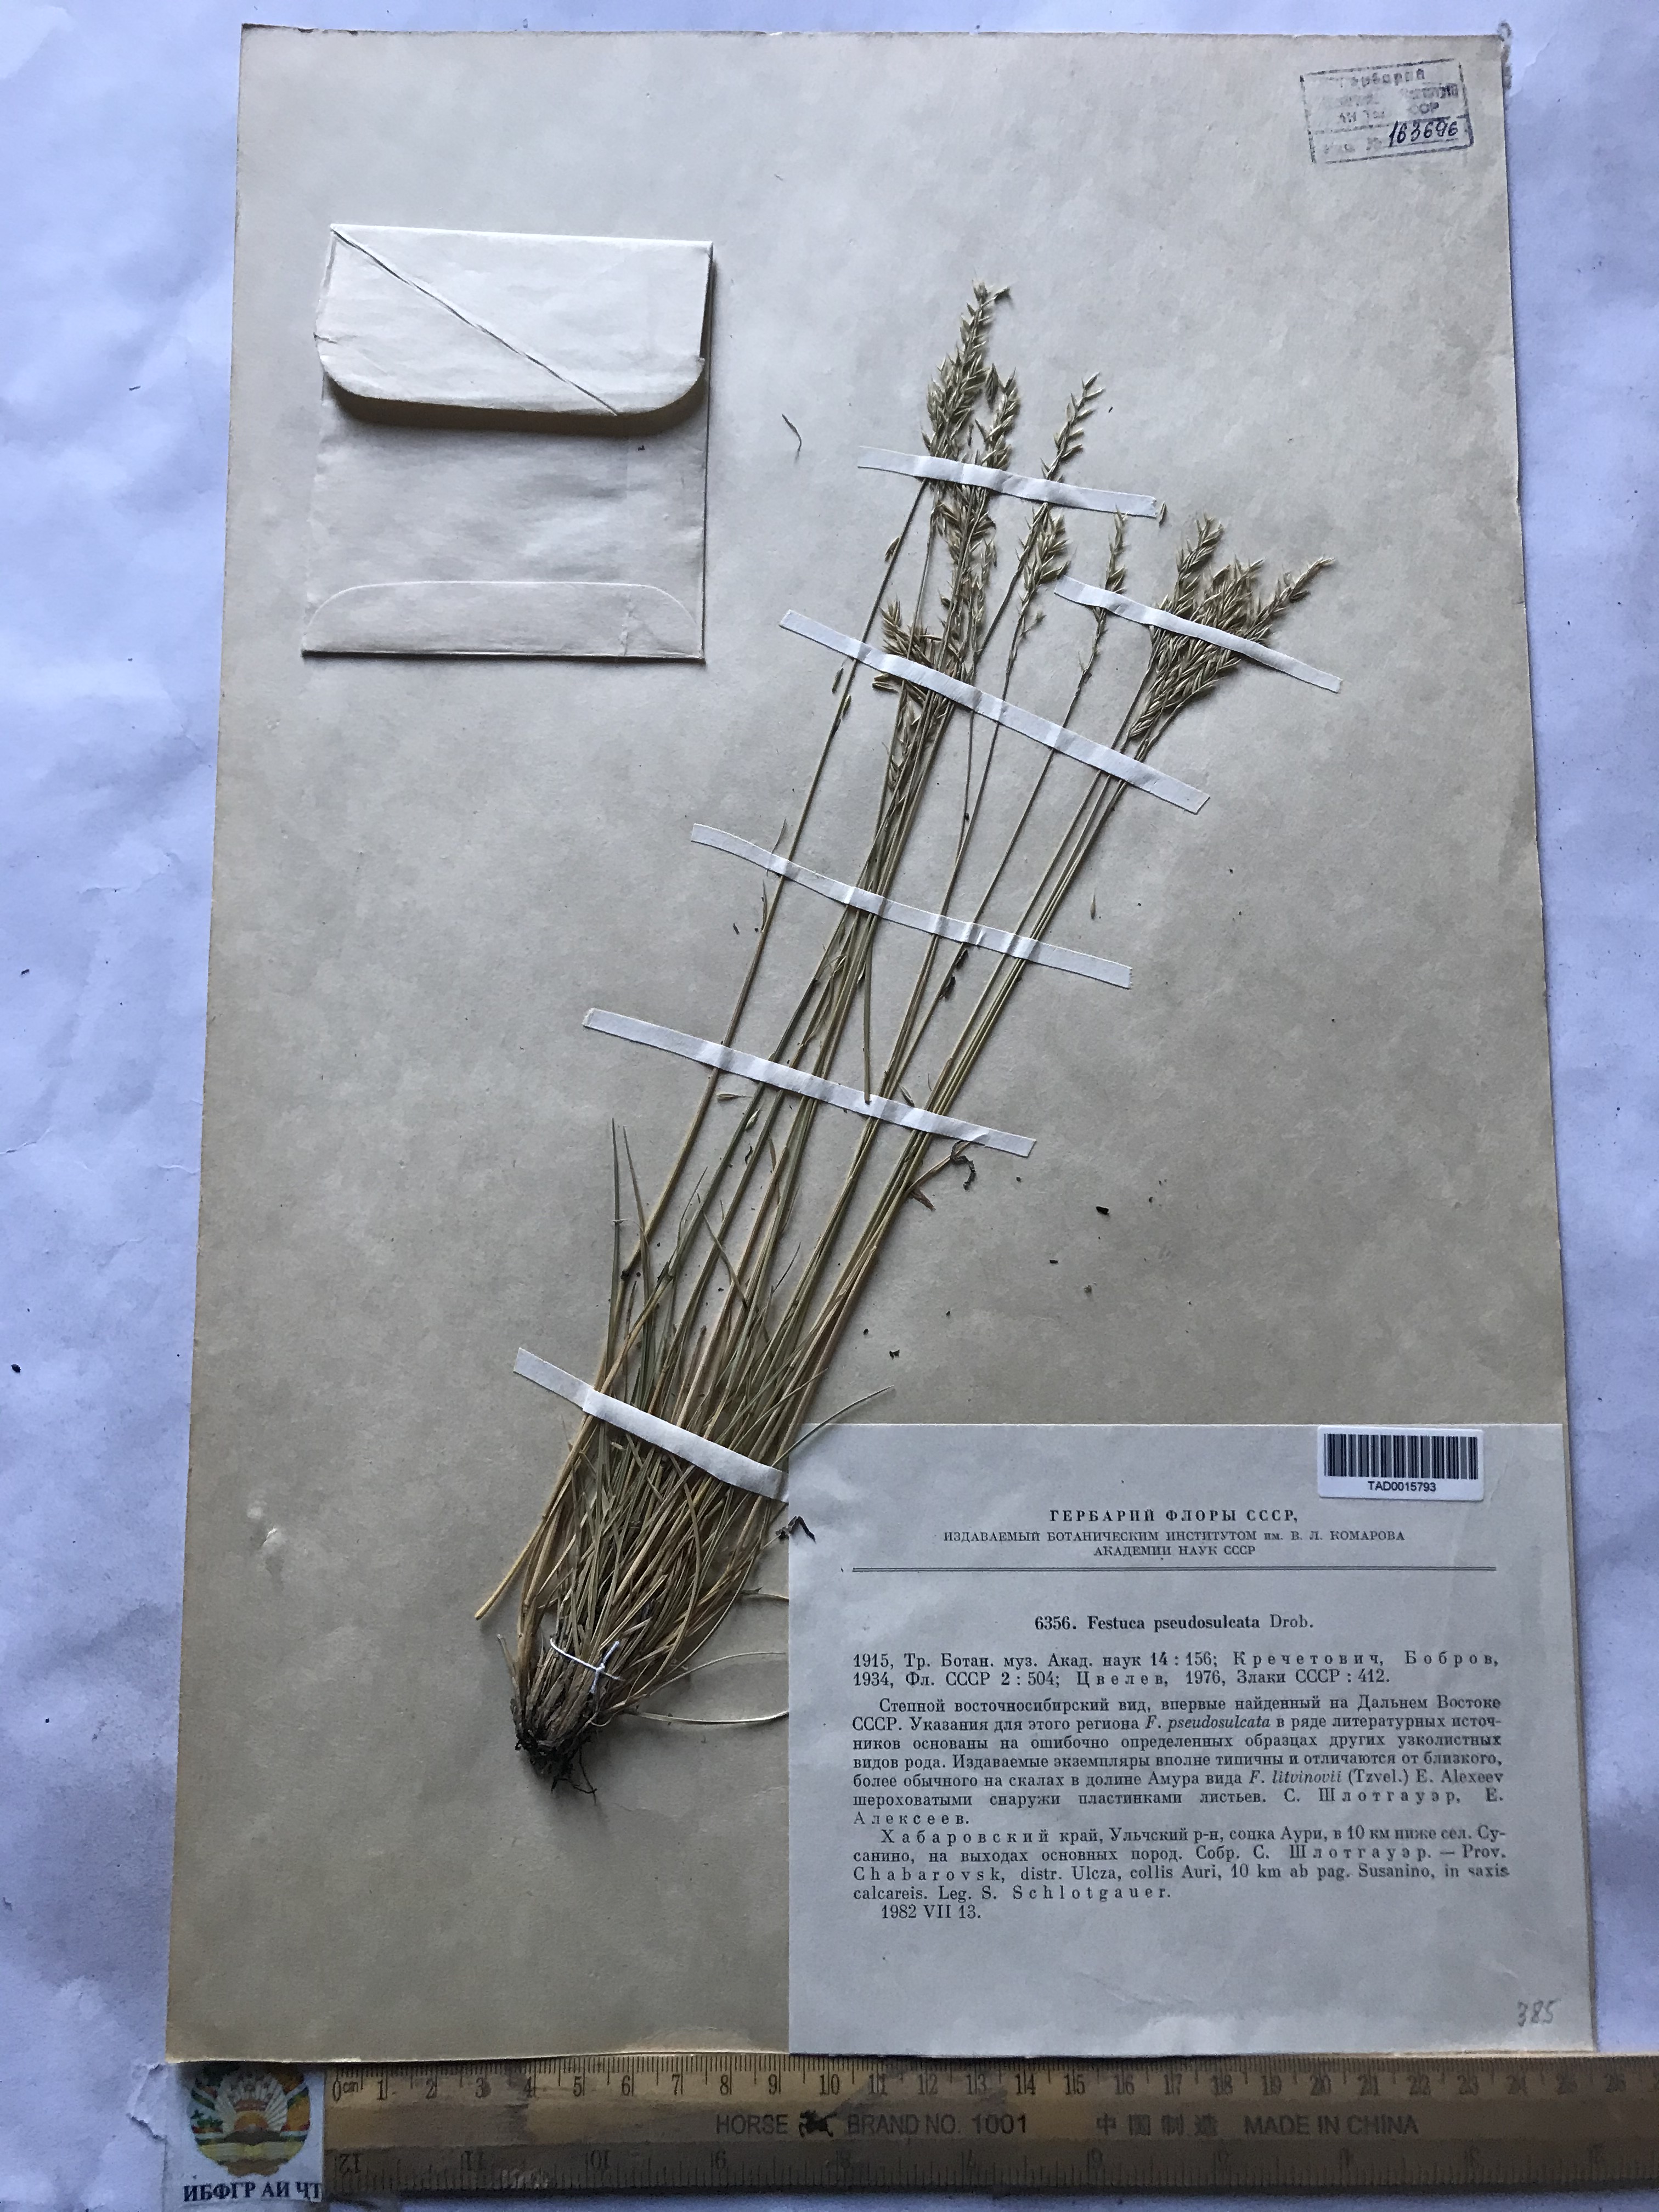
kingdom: Plantae
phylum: Tracheophyta
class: Liliopsida
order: Poales
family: Poaceae
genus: Festuca
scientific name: Festuca pseudosulcata
